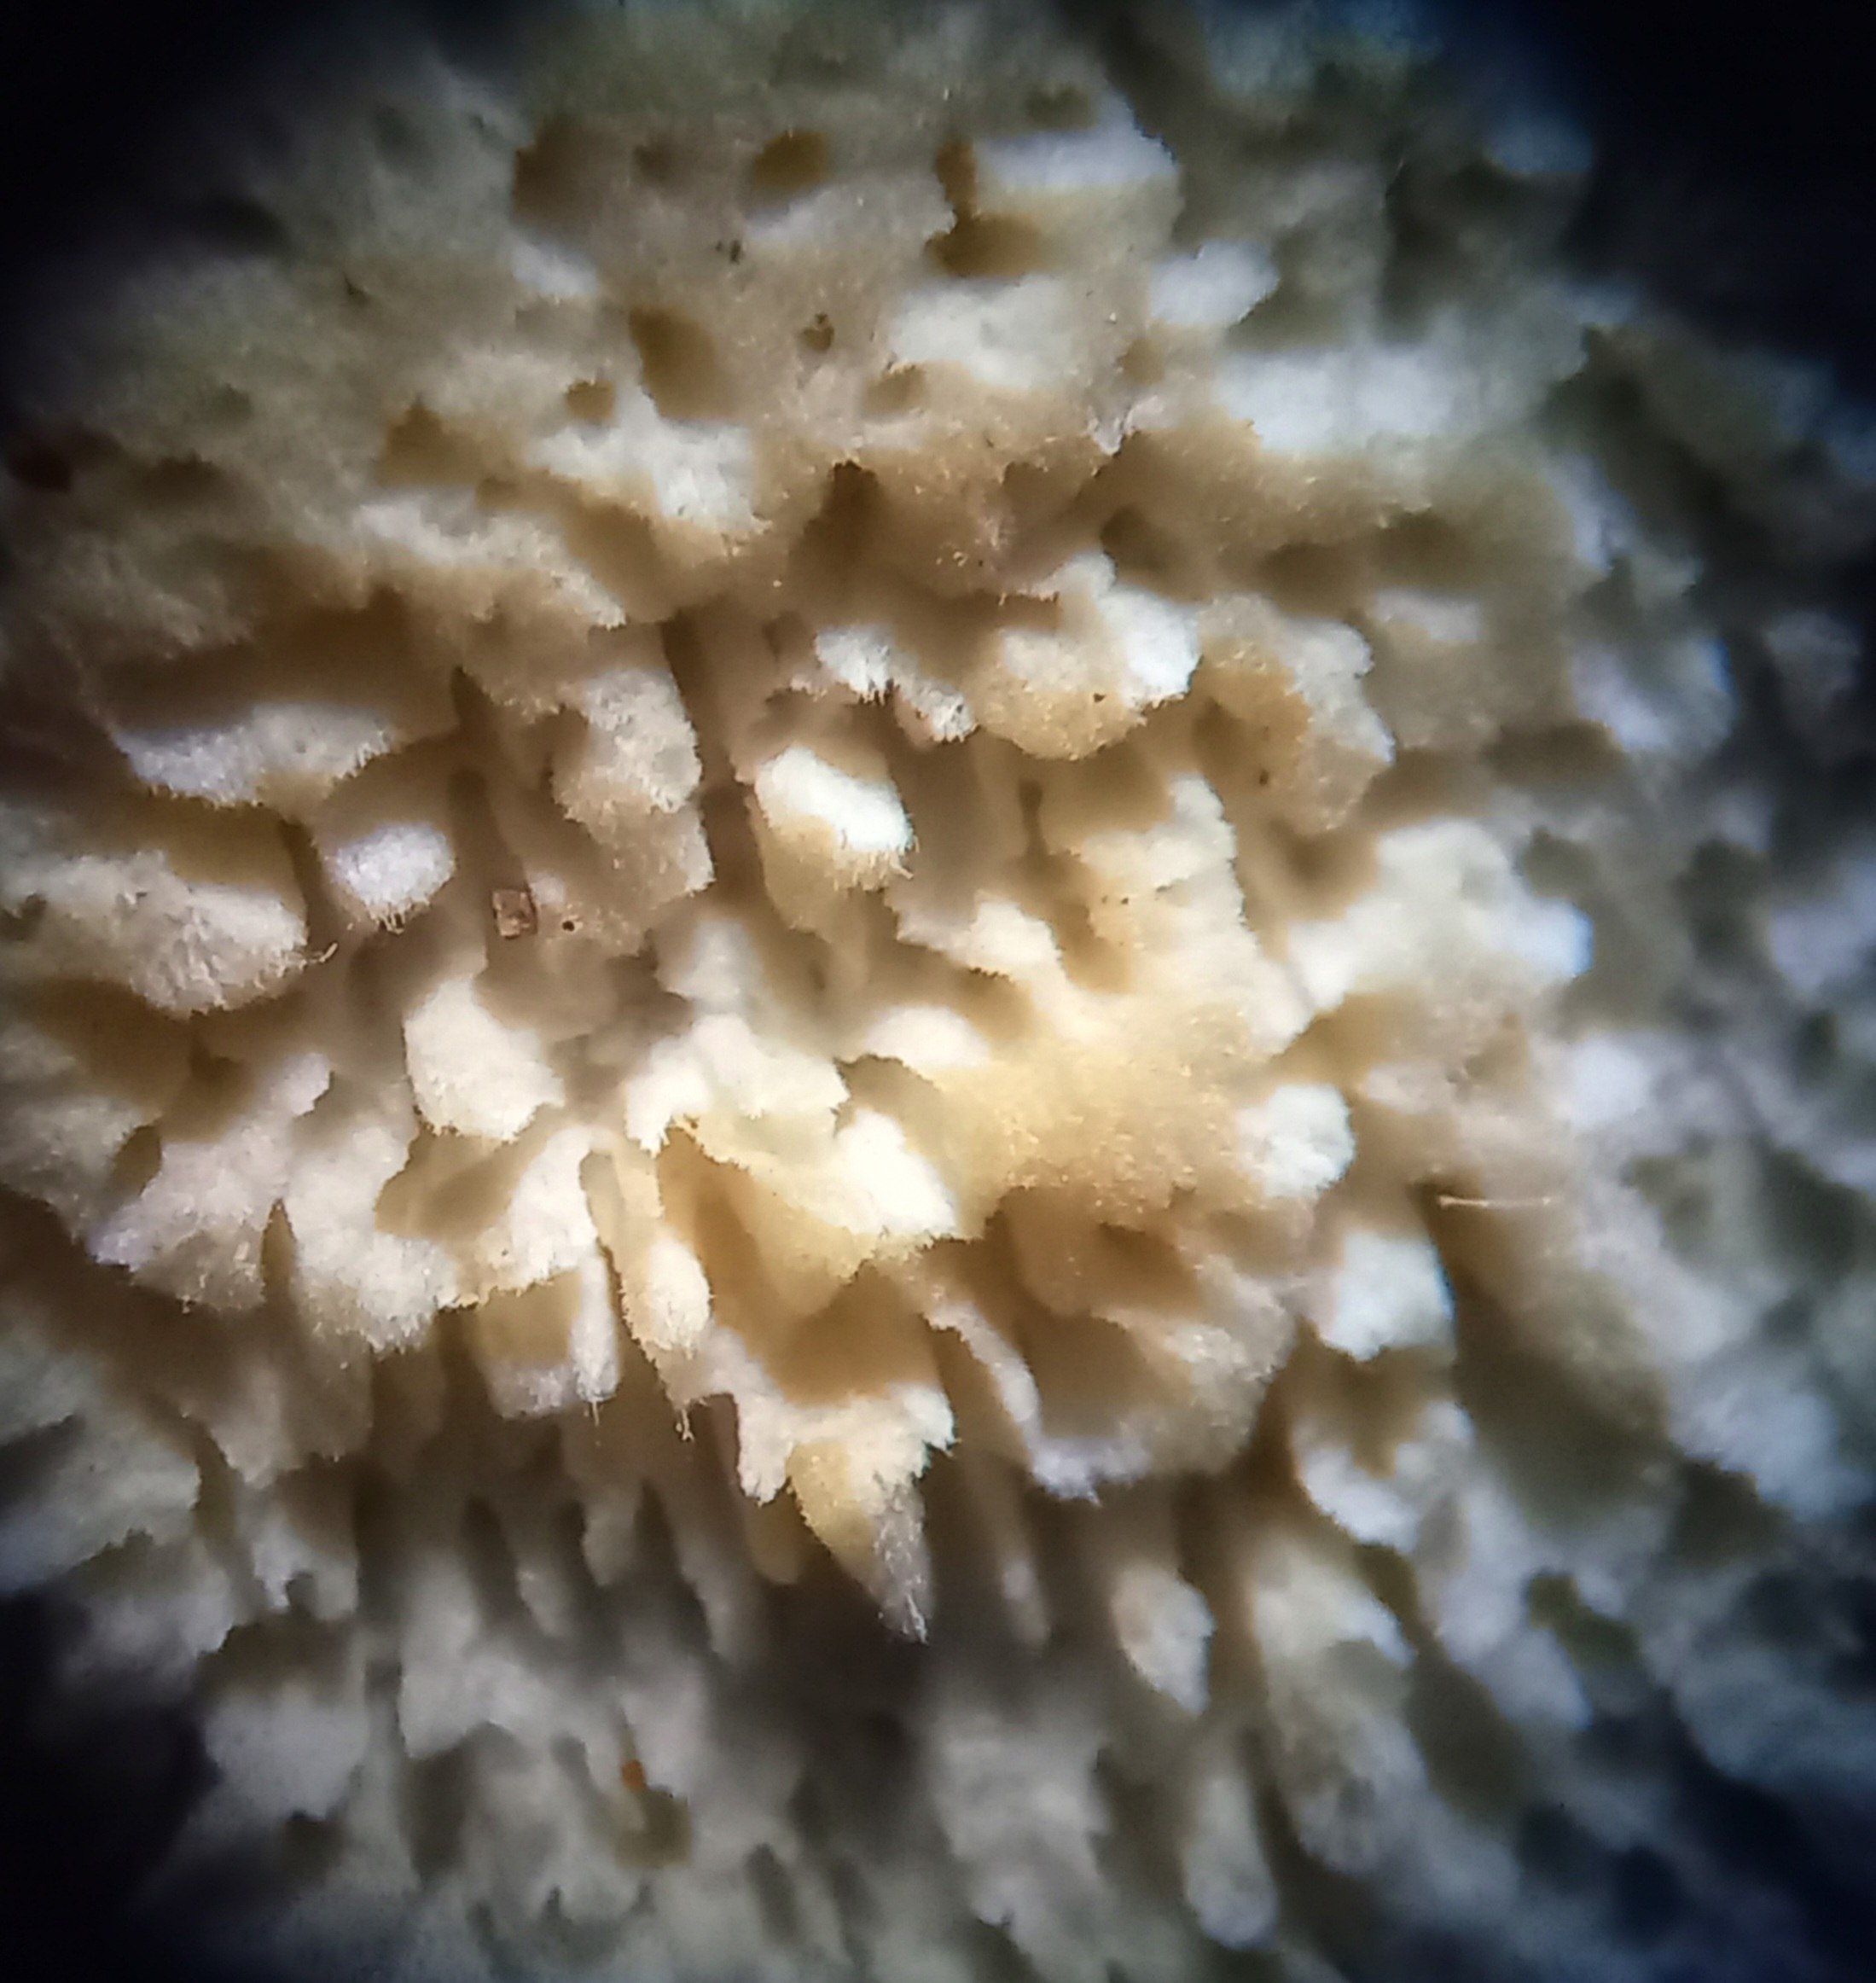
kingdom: Fungi
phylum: Basidiomycota
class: Agaricomycetes
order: Hymenochaetales
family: Schizoporaceae
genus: Xylodon
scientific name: Xylodon
